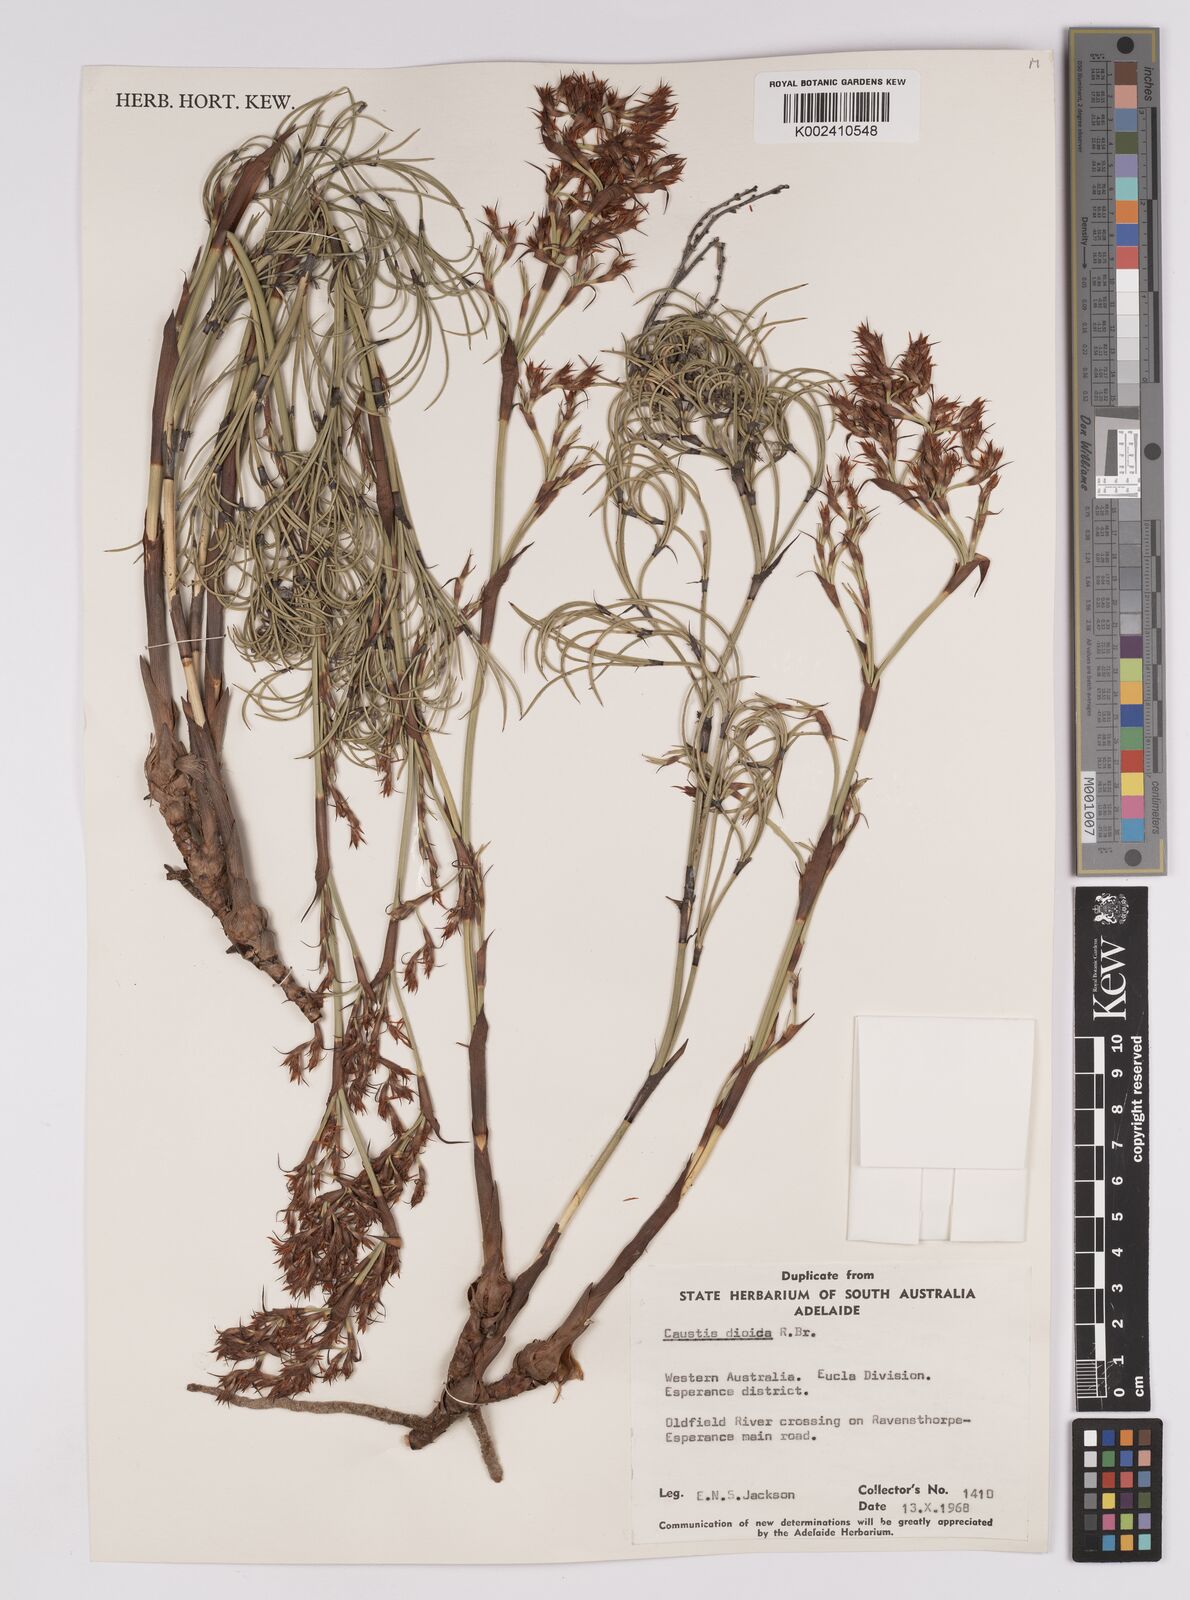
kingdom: Plantae
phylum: Tracheophyta
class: Liliopsida
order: Poales
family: Cyperaceae
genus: Caustis
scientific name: Caustis dioica
